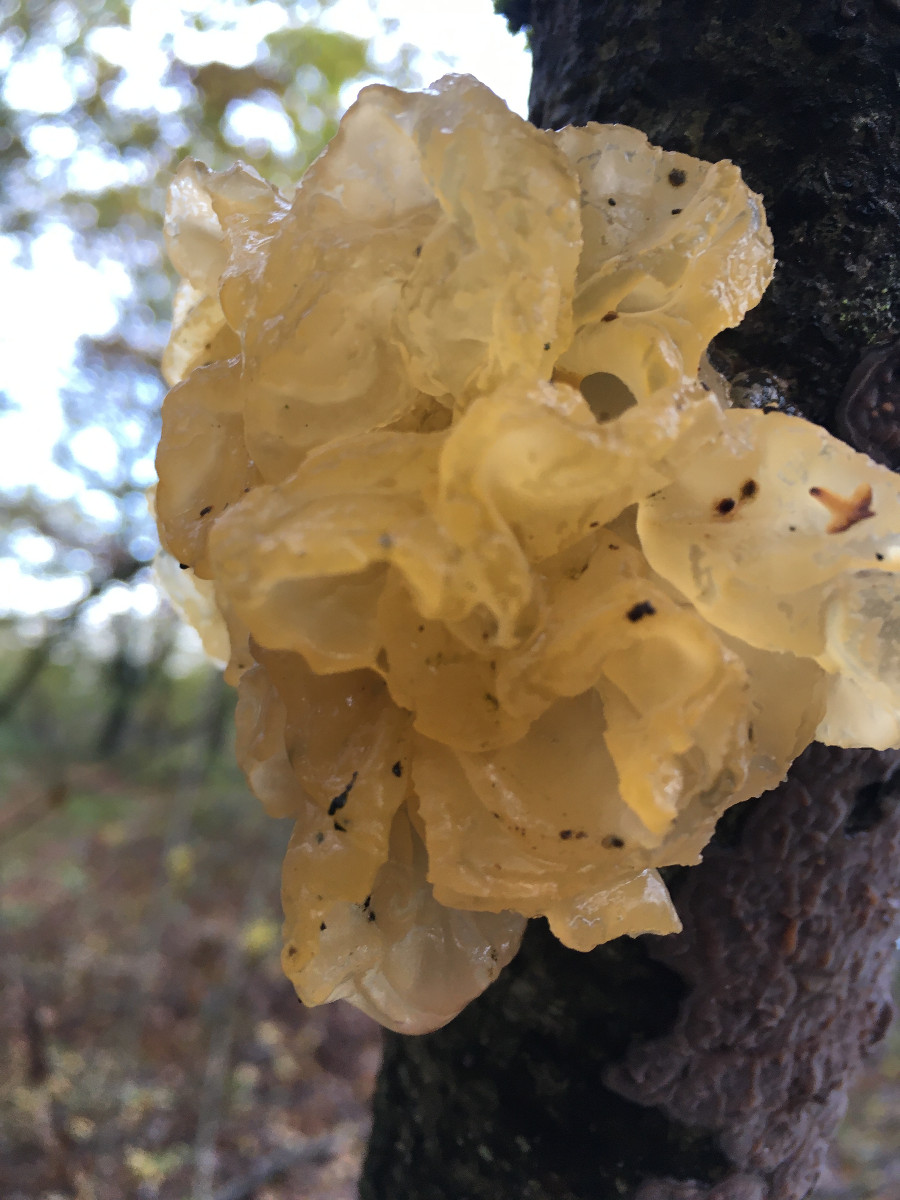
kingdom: Fungi
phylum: Basidiomycota
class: Tremellomycetes
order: Tremellales
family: Tremellaceae
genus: Tremella
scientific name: Tremella mesenterica
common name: gul bævresvamp
